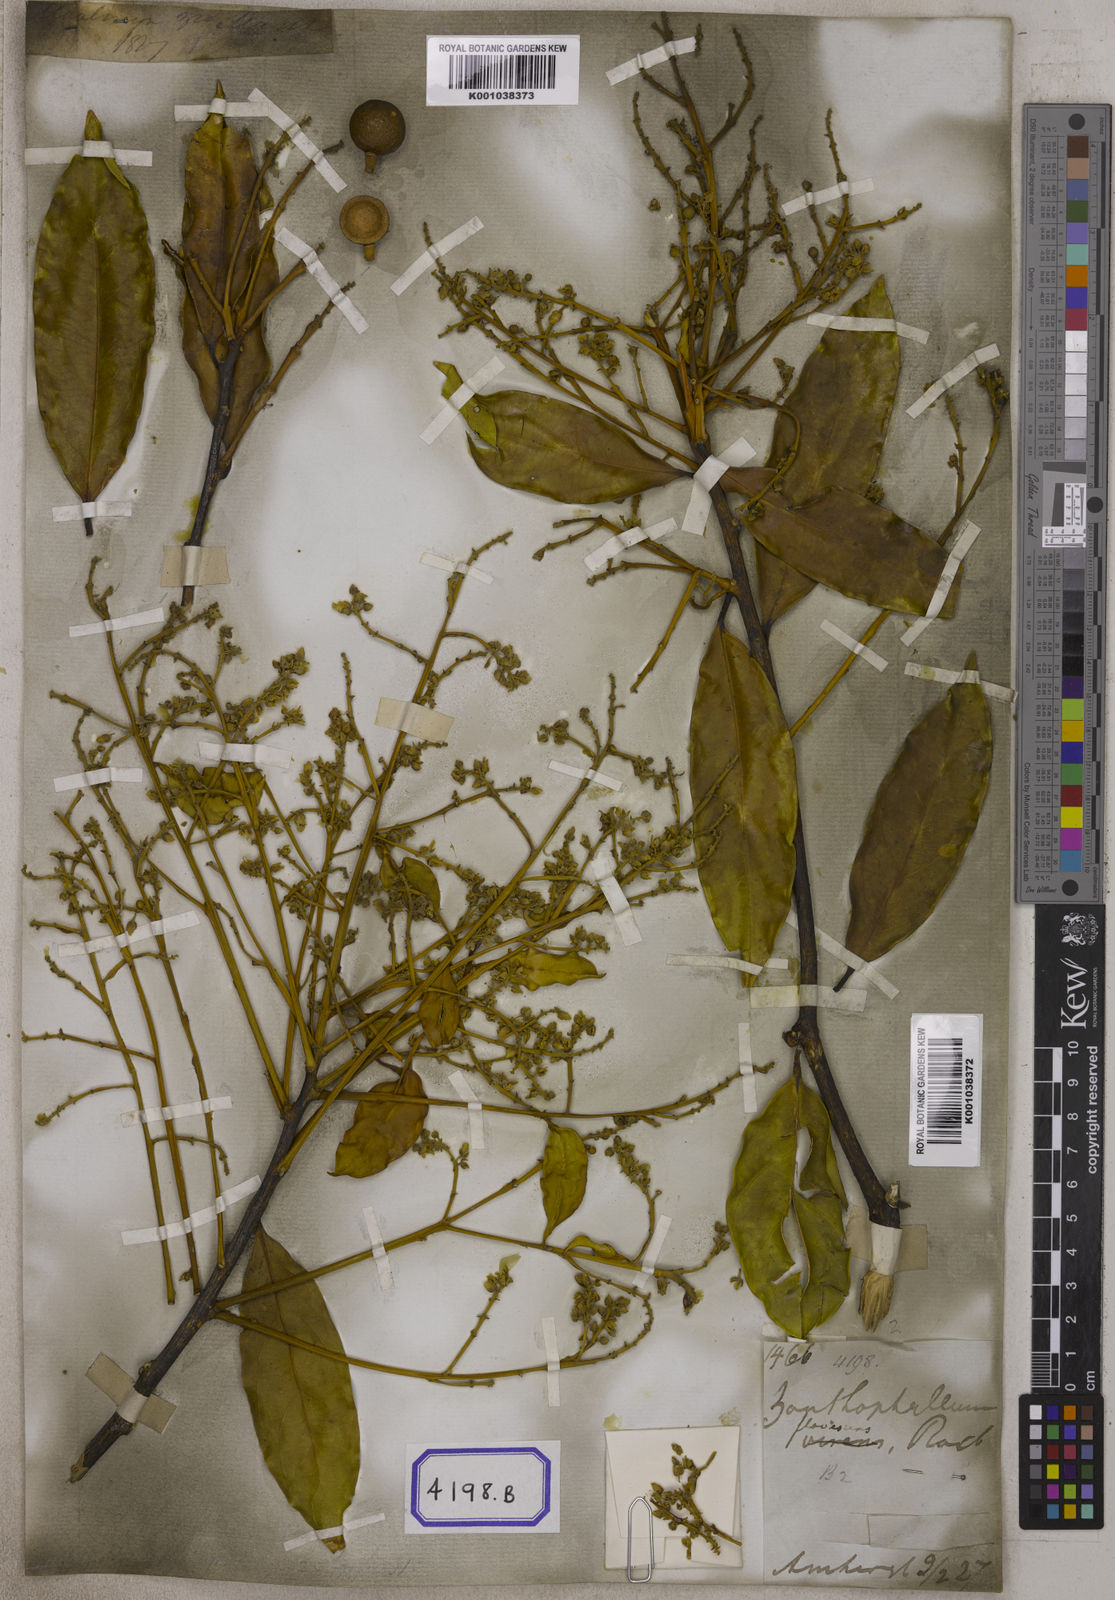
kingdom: Plantae
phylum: Tracheophyta
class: Magnoliopsida
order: Fabales
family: Polygalaceae
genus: Xanthophyllum
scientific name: Xanthophyllum flavescens
